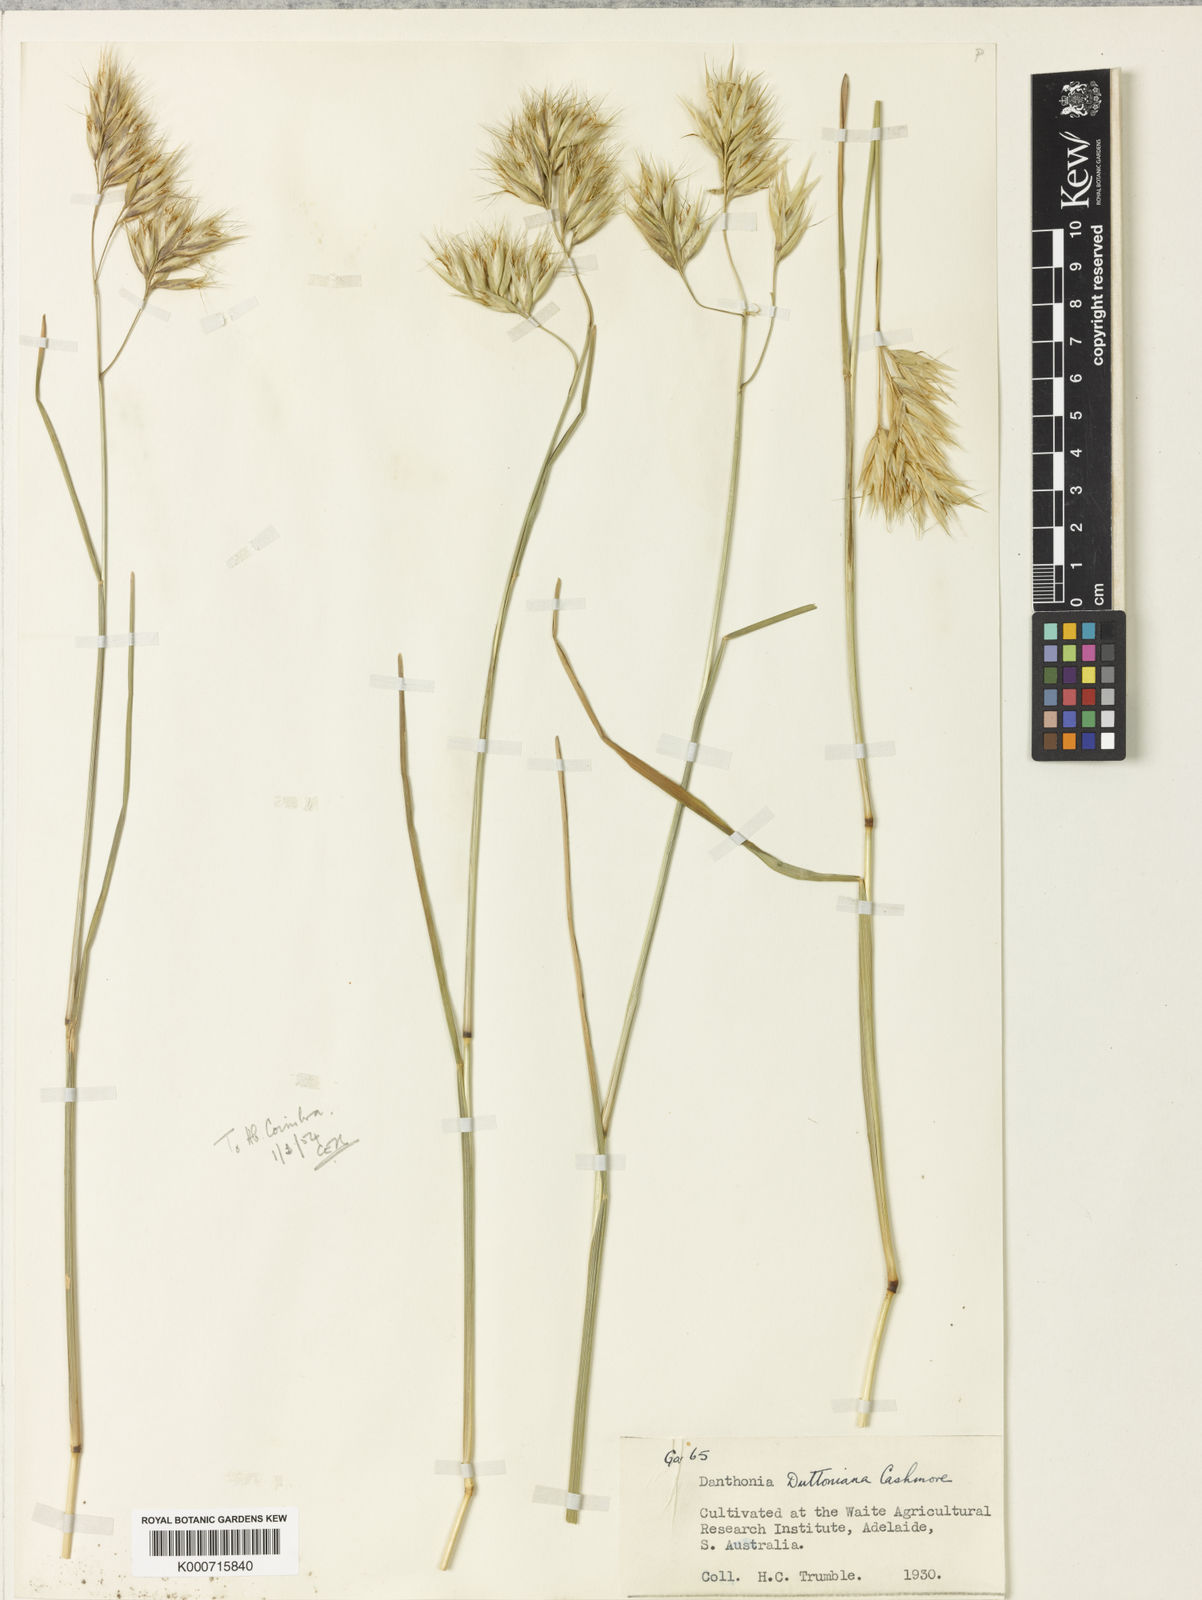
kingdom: Plantae
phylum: Tracheophyta
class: Liliopsida
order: Poales
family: Poaceae
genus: Rytidosperma
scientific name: Rytidosperma duttonianum
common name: Brown-black wallaby grass
